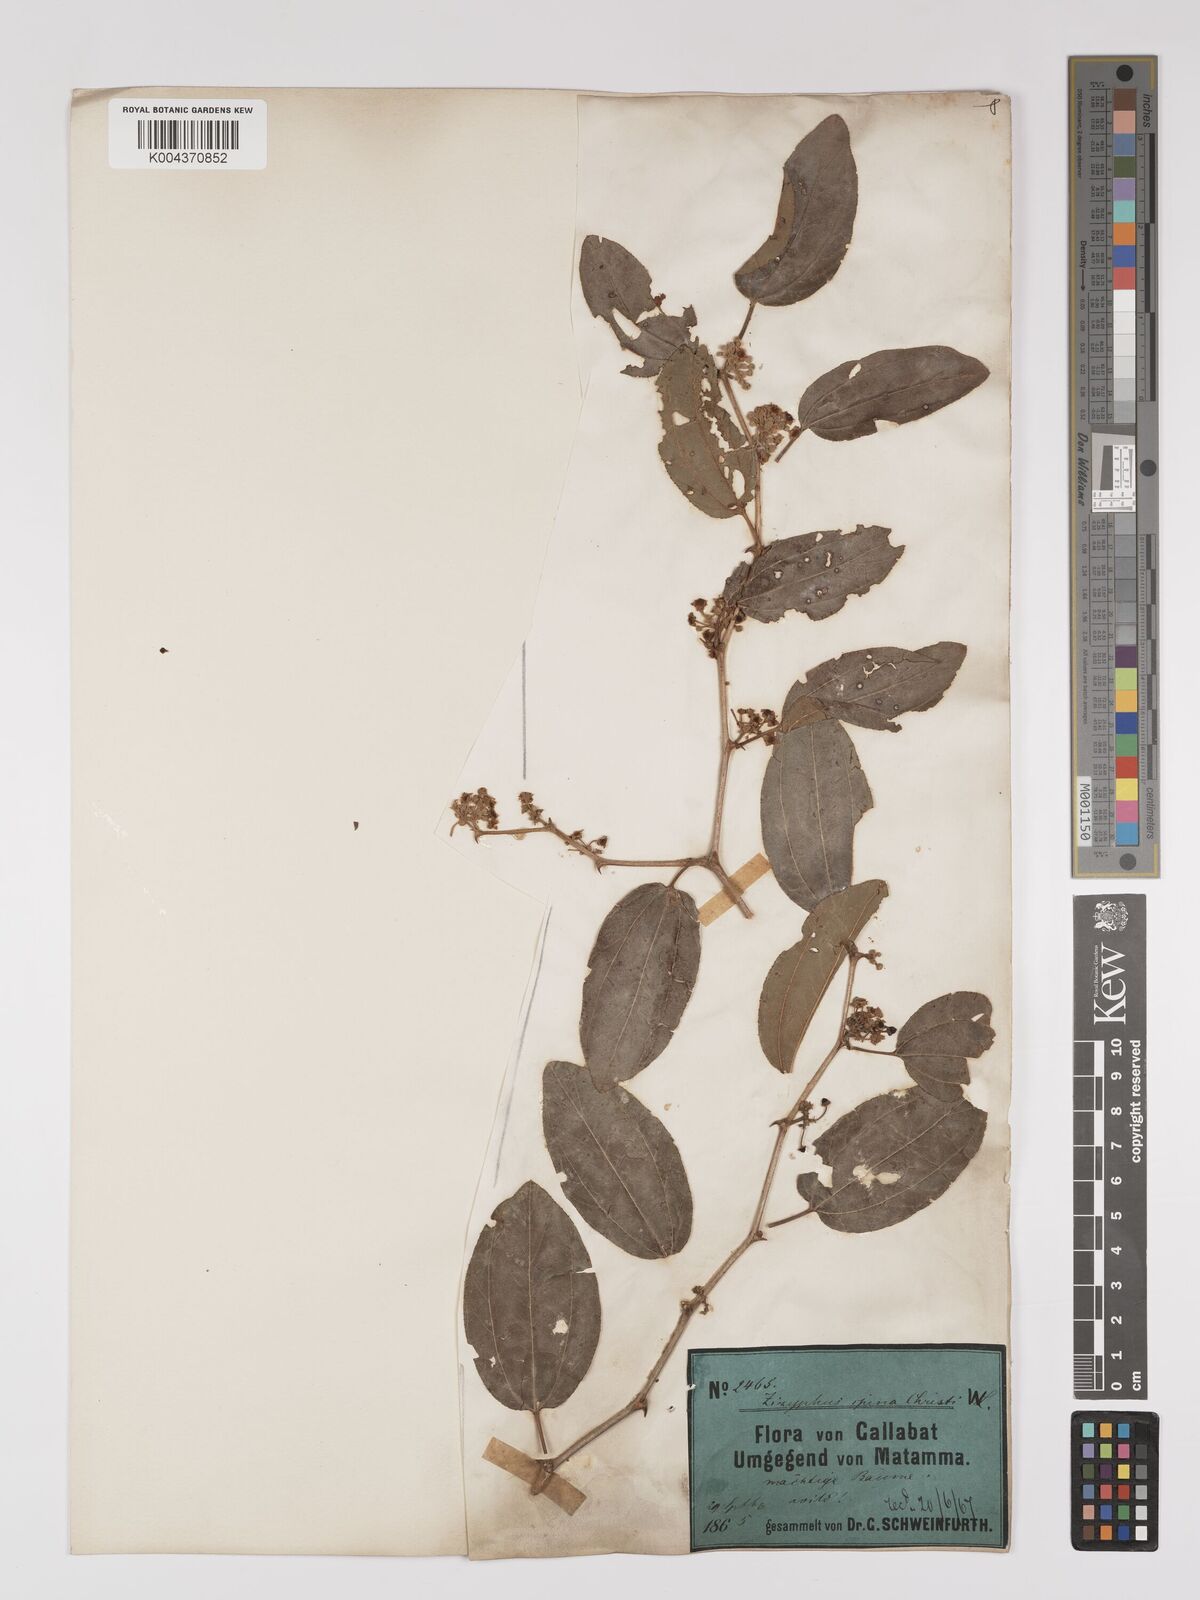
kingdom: Plantae
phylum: Tracheophyta
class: Magnoliopsida
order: Rosales
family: Rhamnaceae
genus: Ziziphus
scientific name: Ziziphus spina-christi
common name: Syrian christ-thorn
